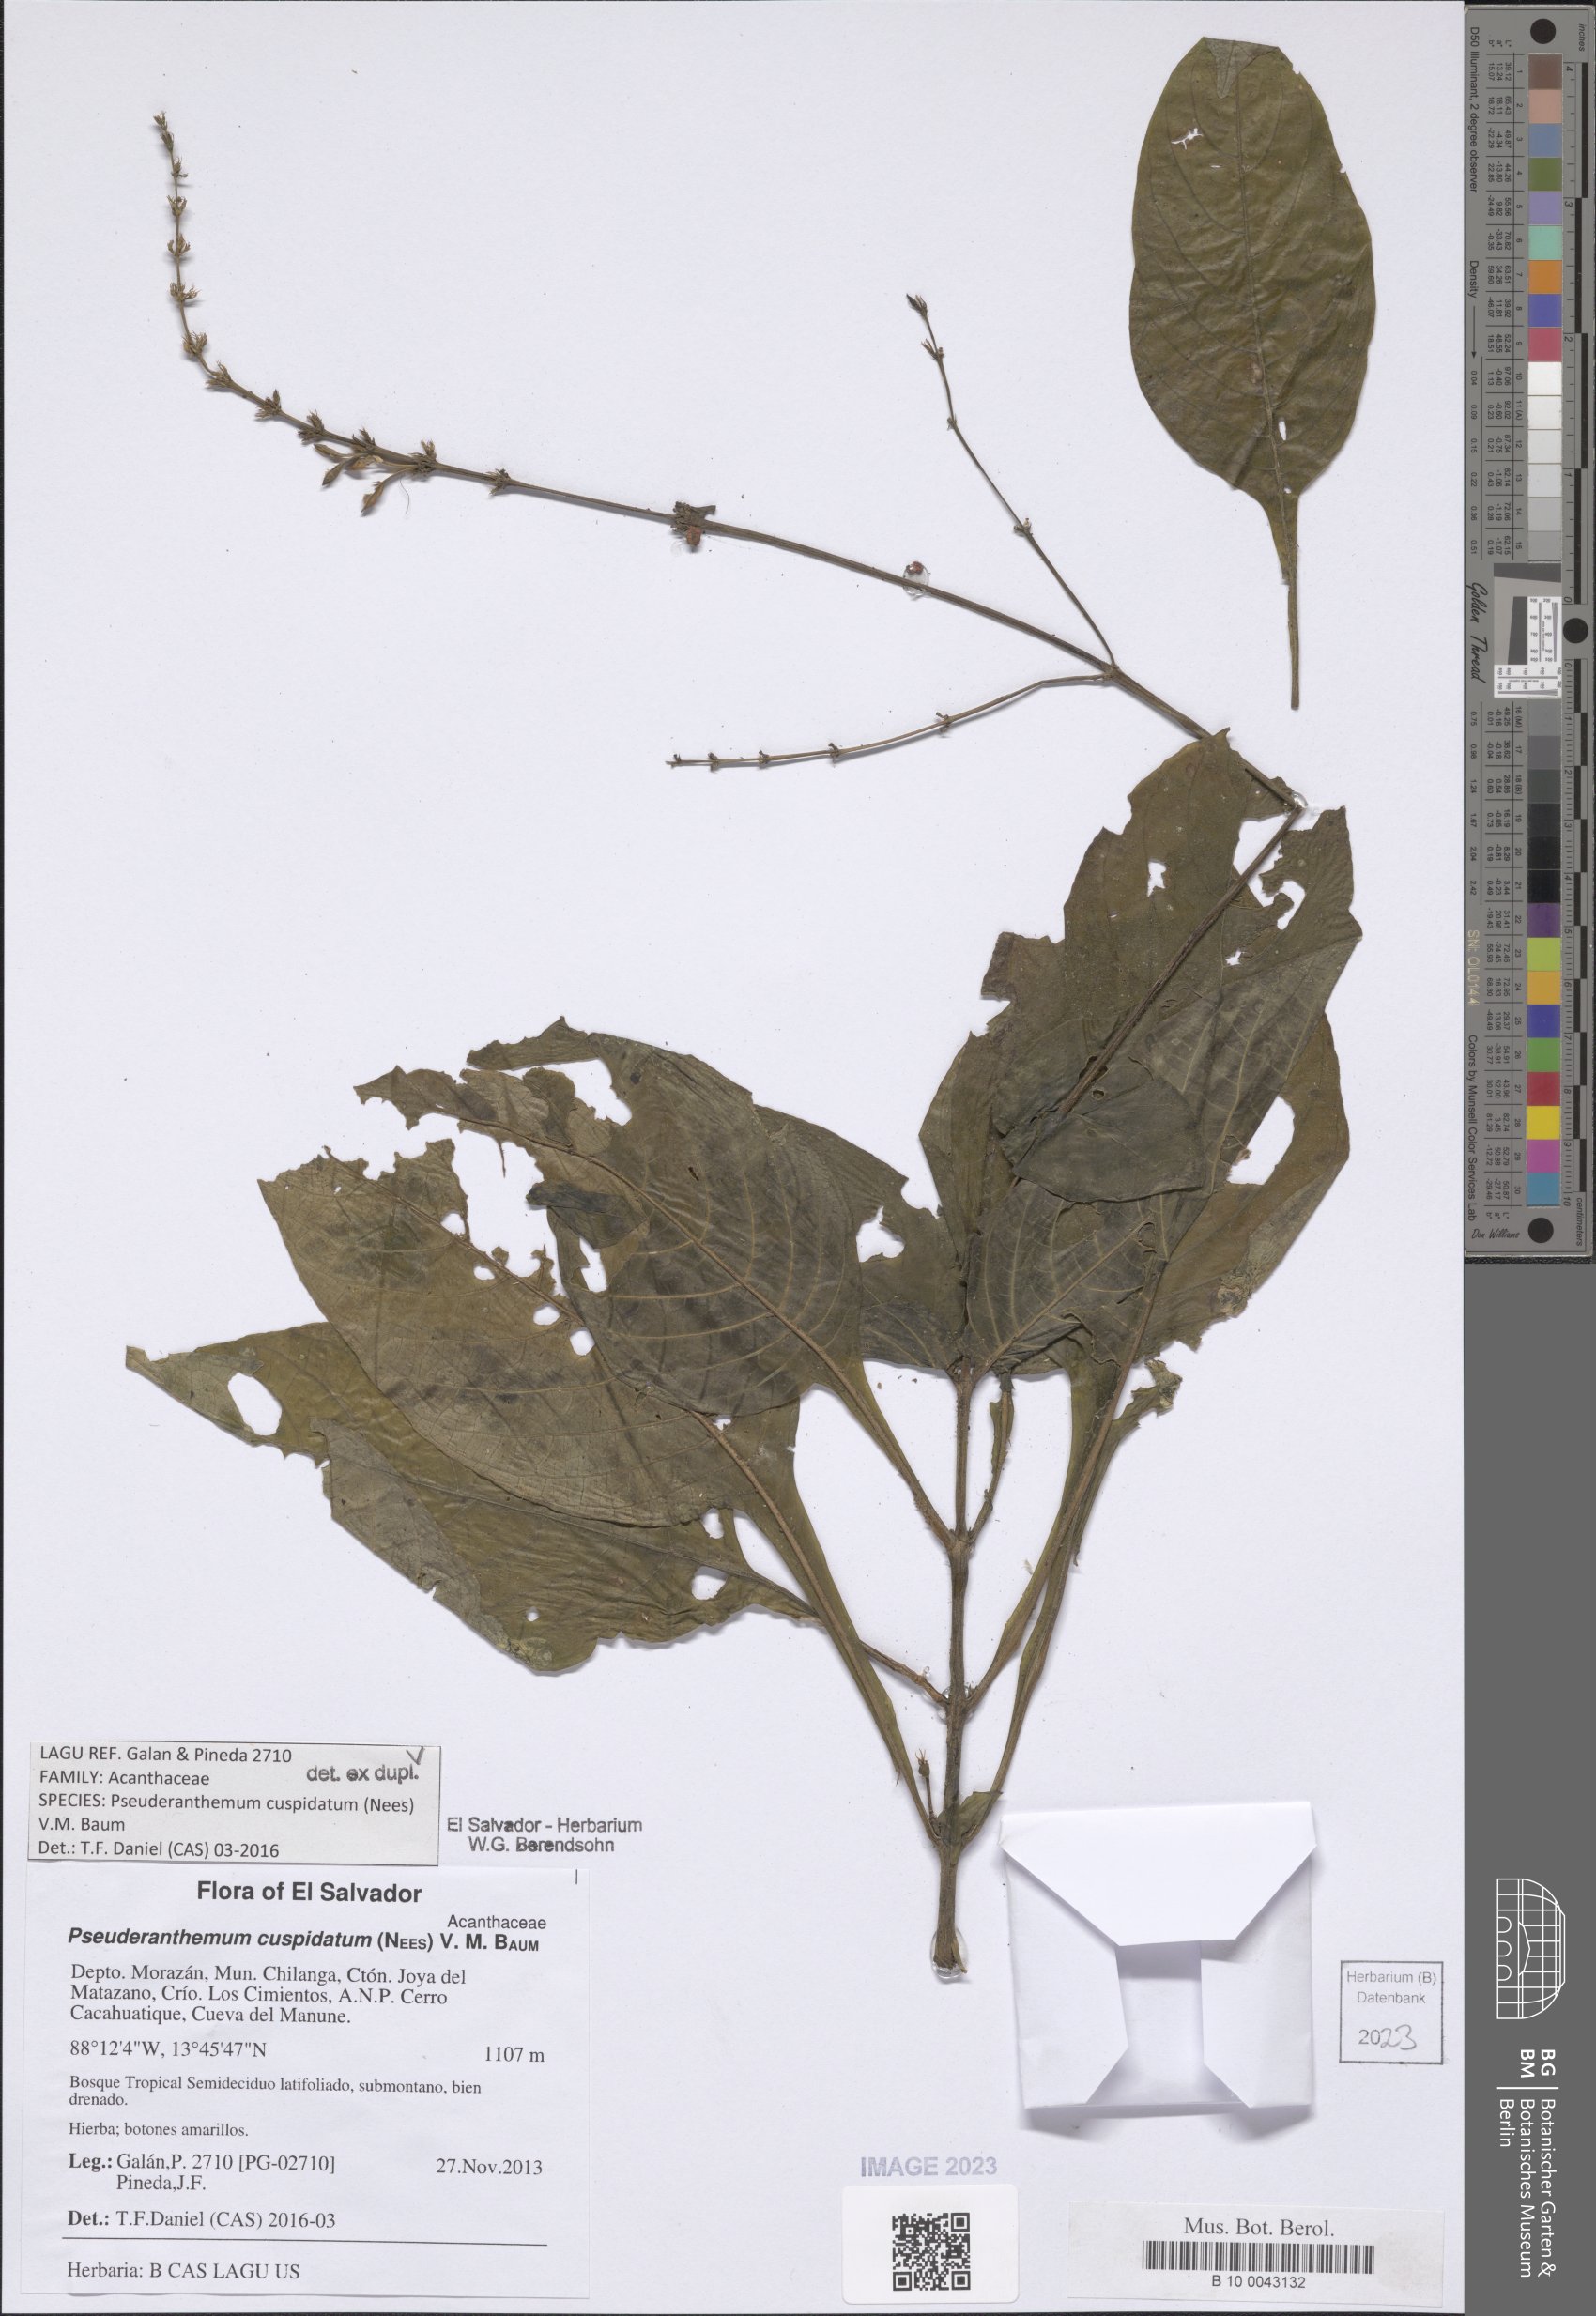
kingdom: Plantae
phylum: Tracheophyta
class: Magnoliopsida
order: Lamiales
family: Acanthaceae
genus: Pseuderanthemum
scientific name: Pseuderanthemum cuspidatum
